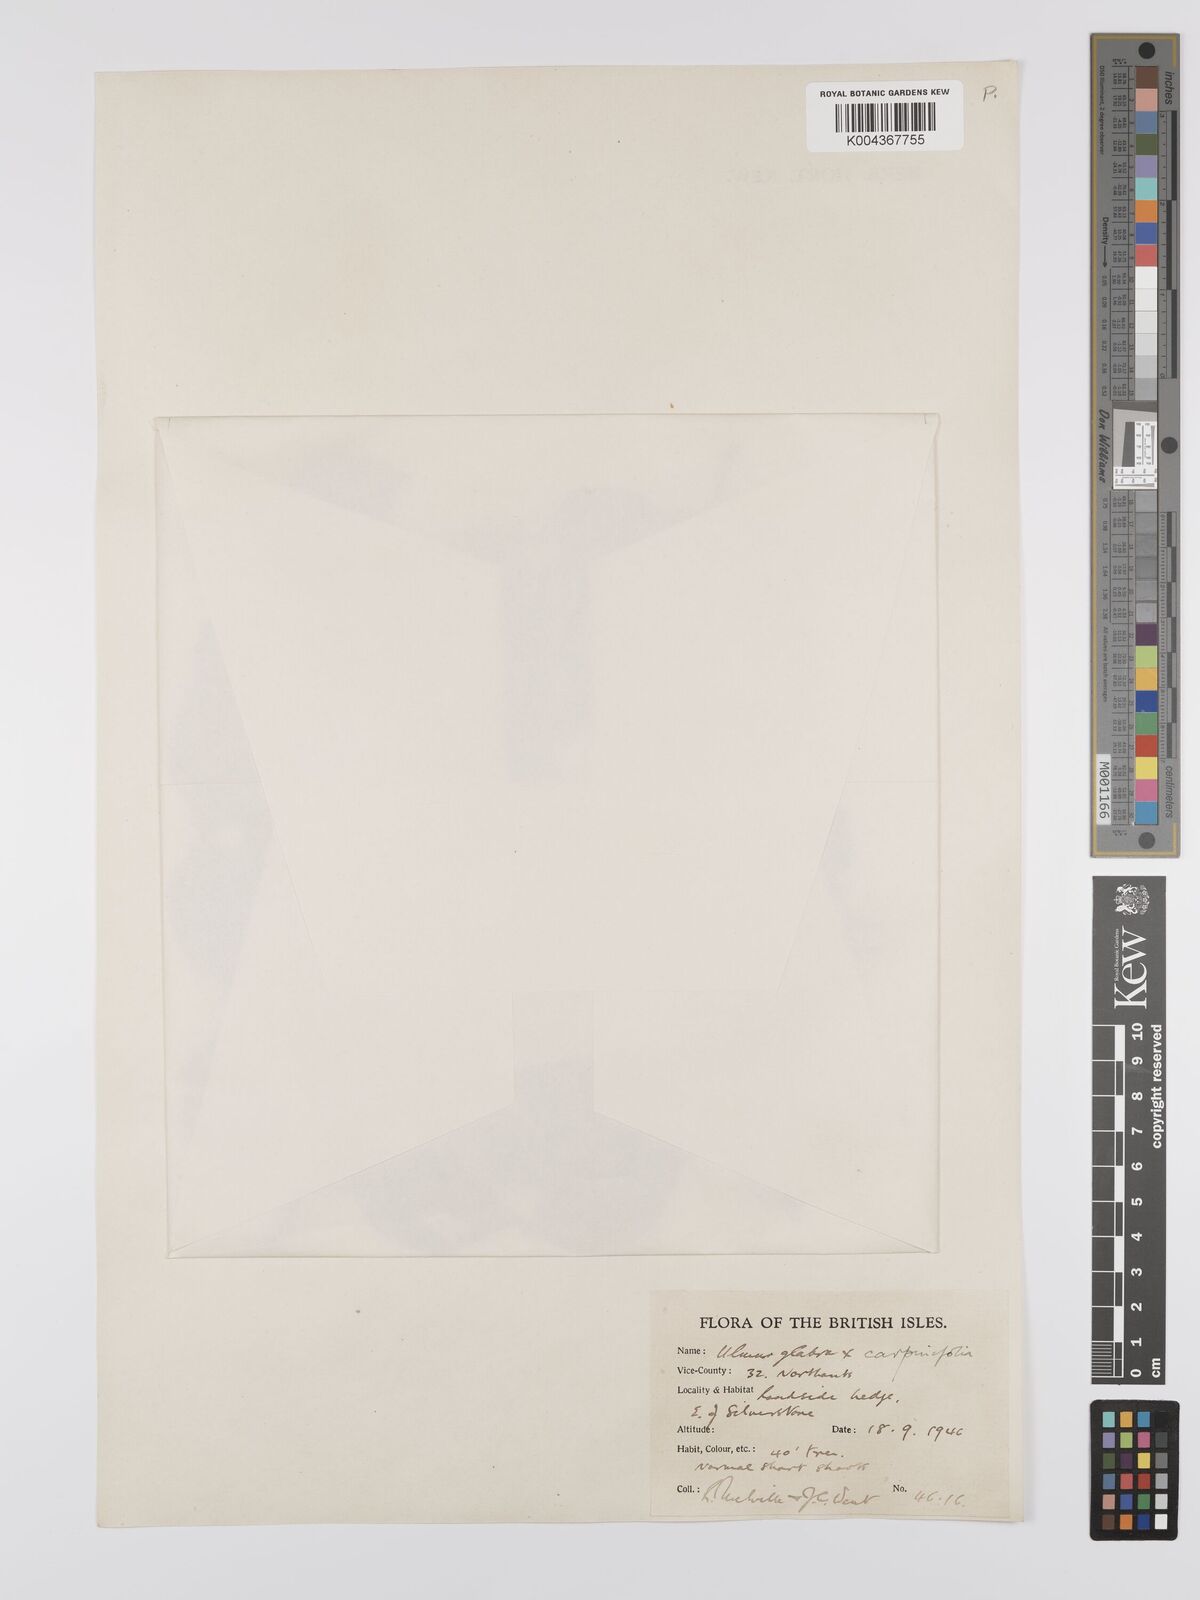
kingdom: Plantae
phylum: Tracheophyta
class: Magnoliopsida
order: Rosales
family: Ulmaceae
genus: Ulmus
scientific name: Ulmus
